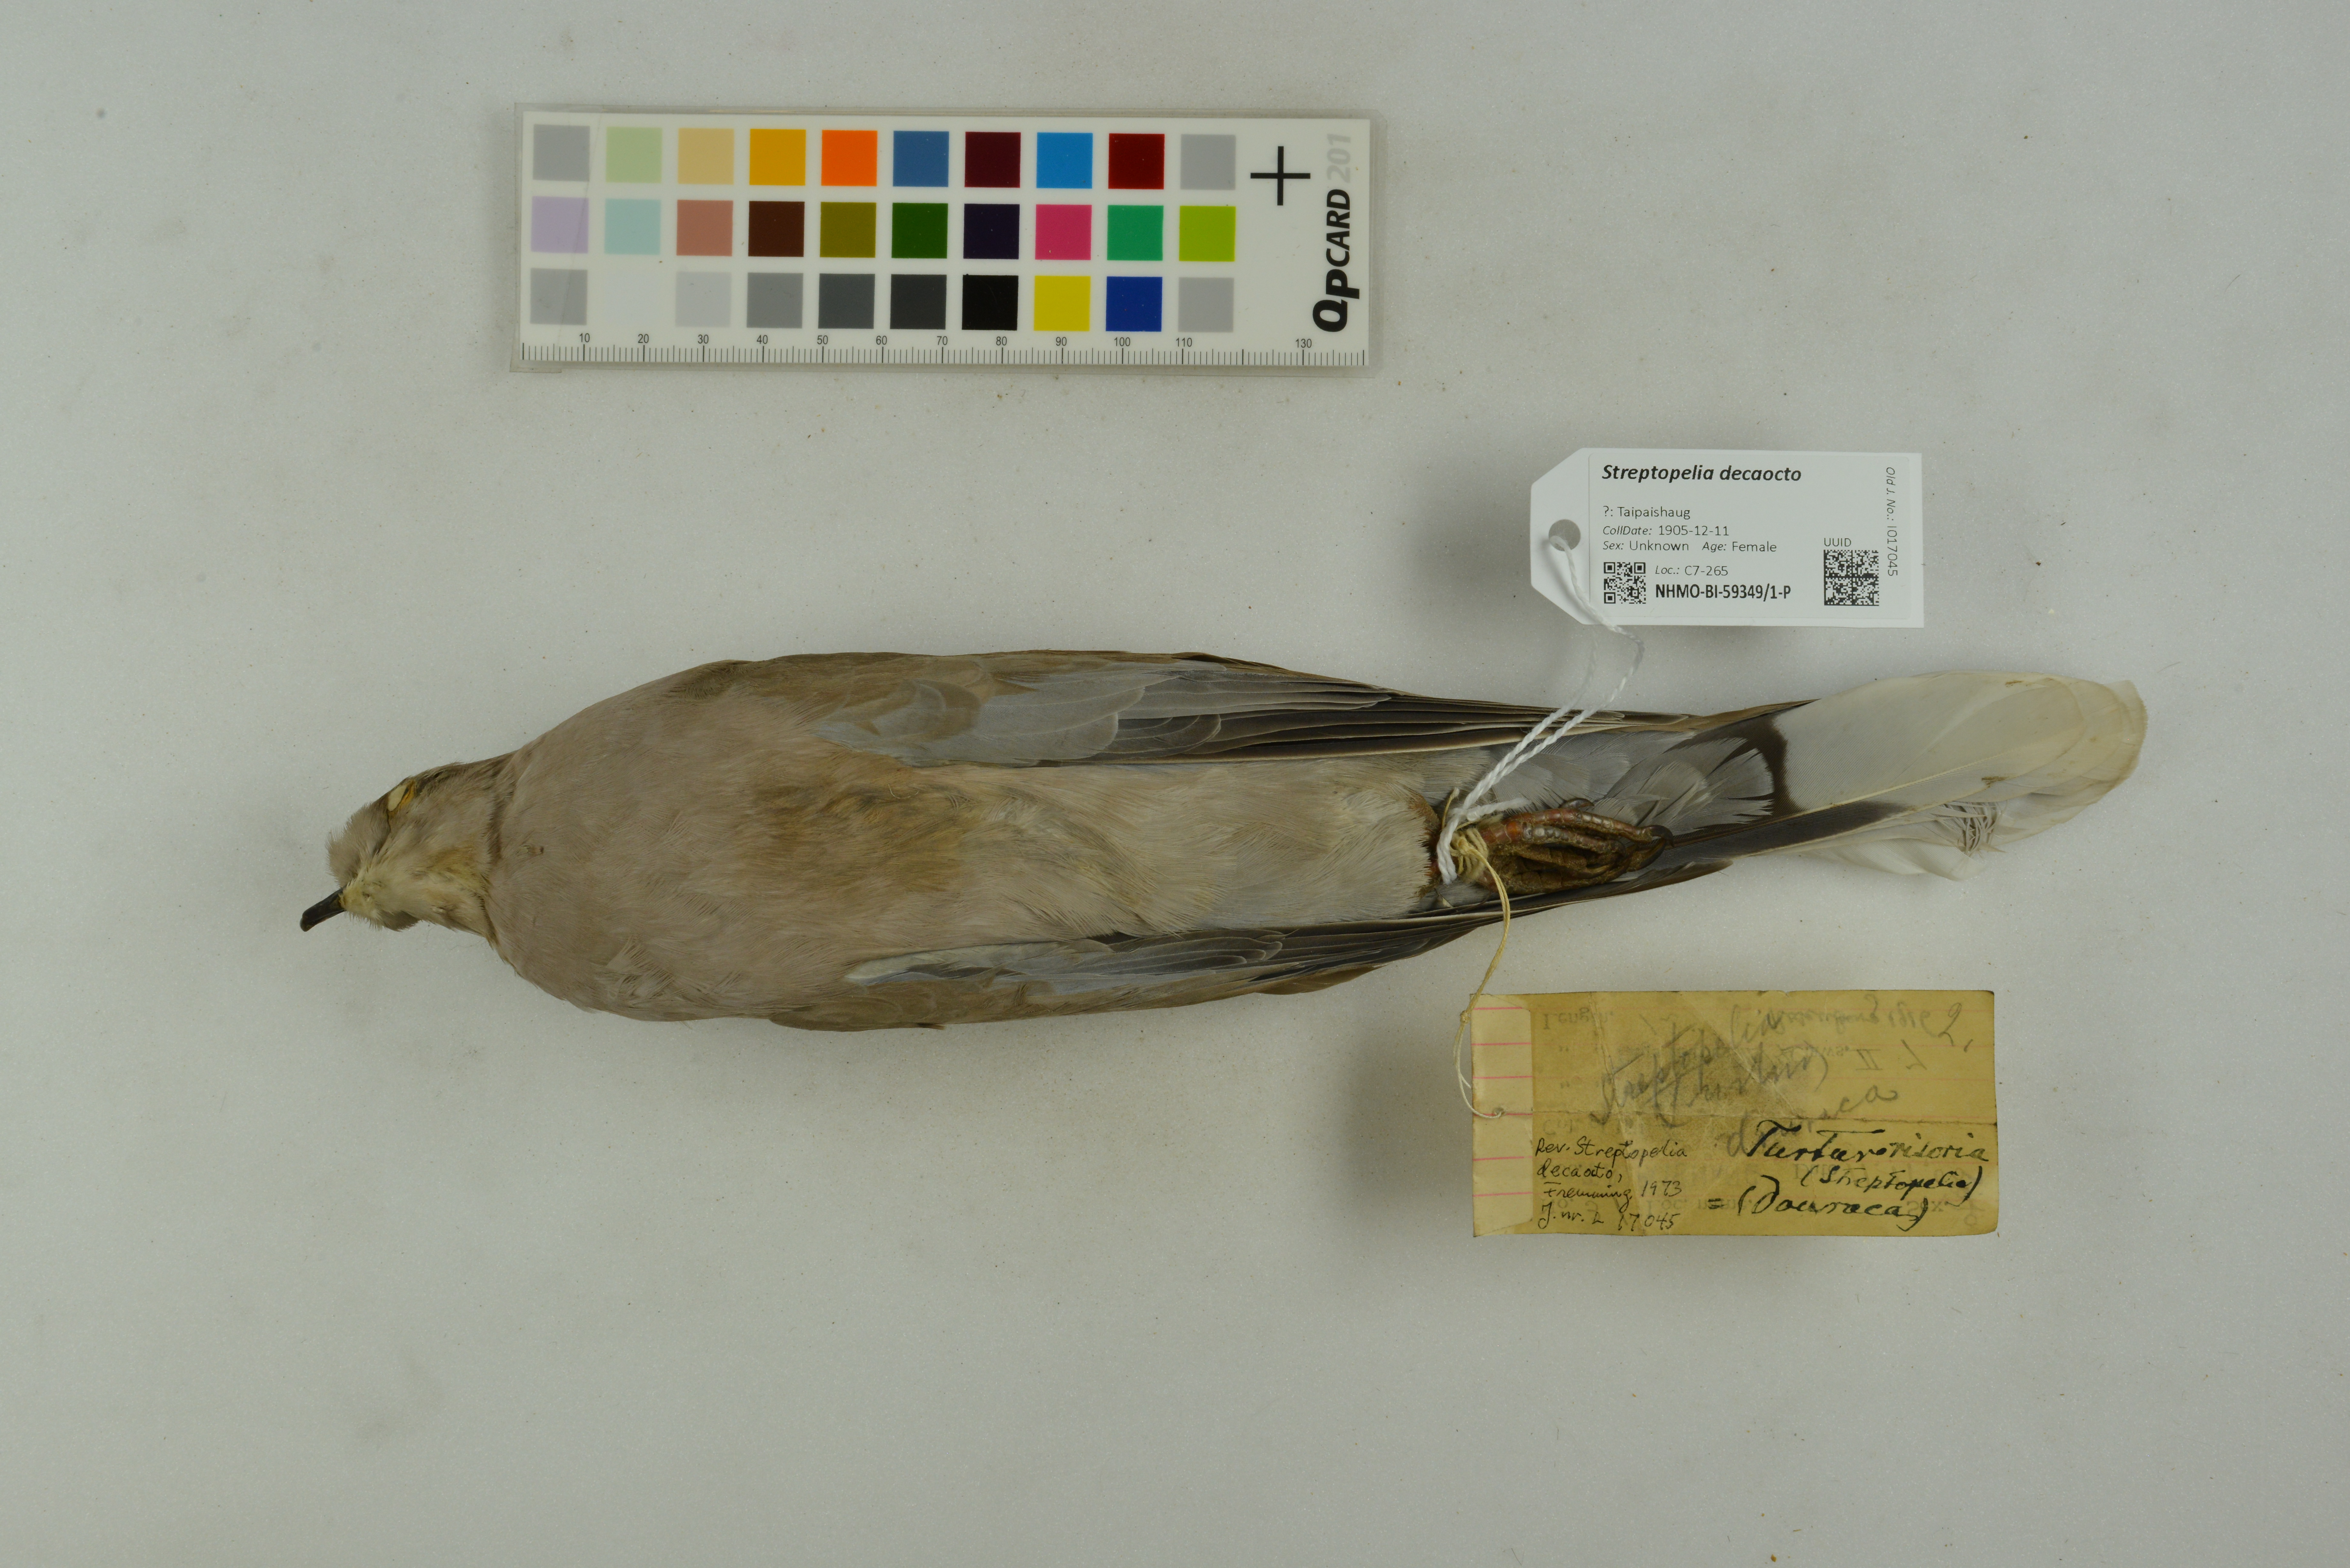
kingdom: Animalia
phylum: Chordata
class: Aves
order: Columbiformes
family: Columbidae
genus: Streptopelia
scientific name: Streptopelia decaocto
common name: Eurasian collared dove
